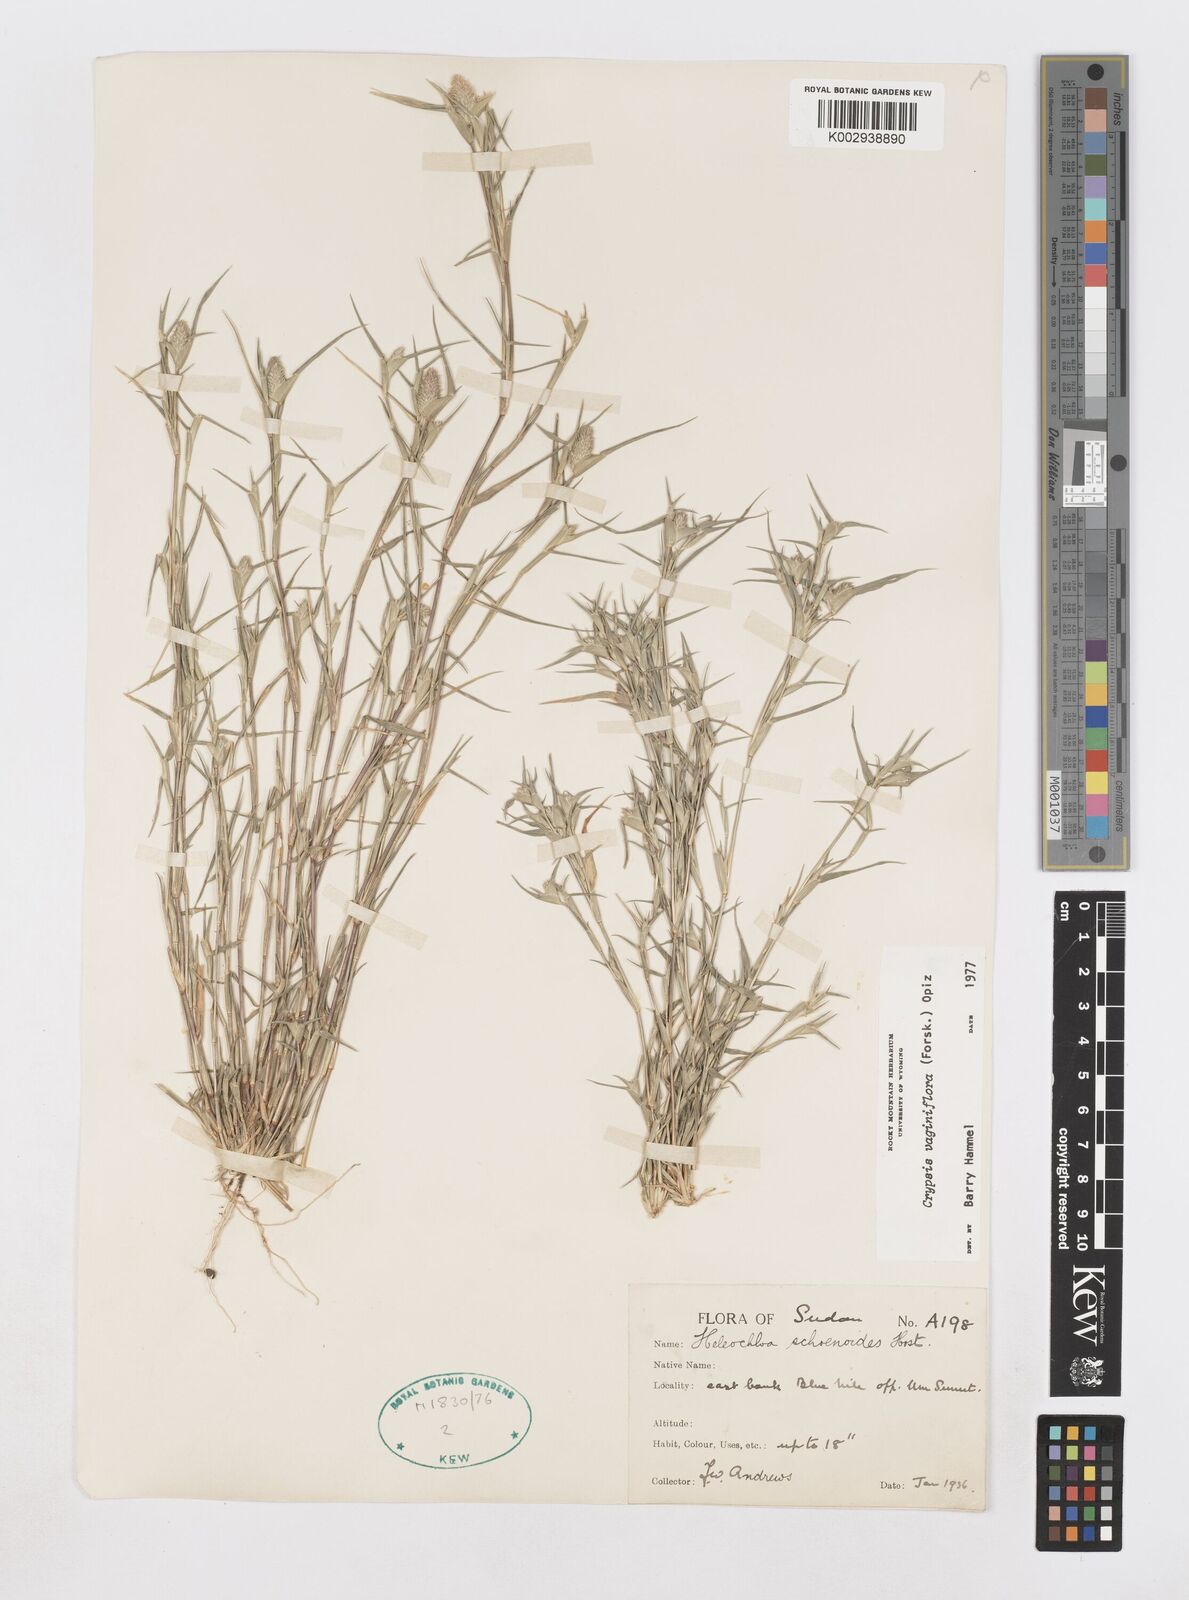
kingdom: Plantae
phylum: Tracheophyta
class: Liliopsida
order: Poales
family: Poaceae
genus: Sporobolus
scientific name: Sporobolus niliacus
